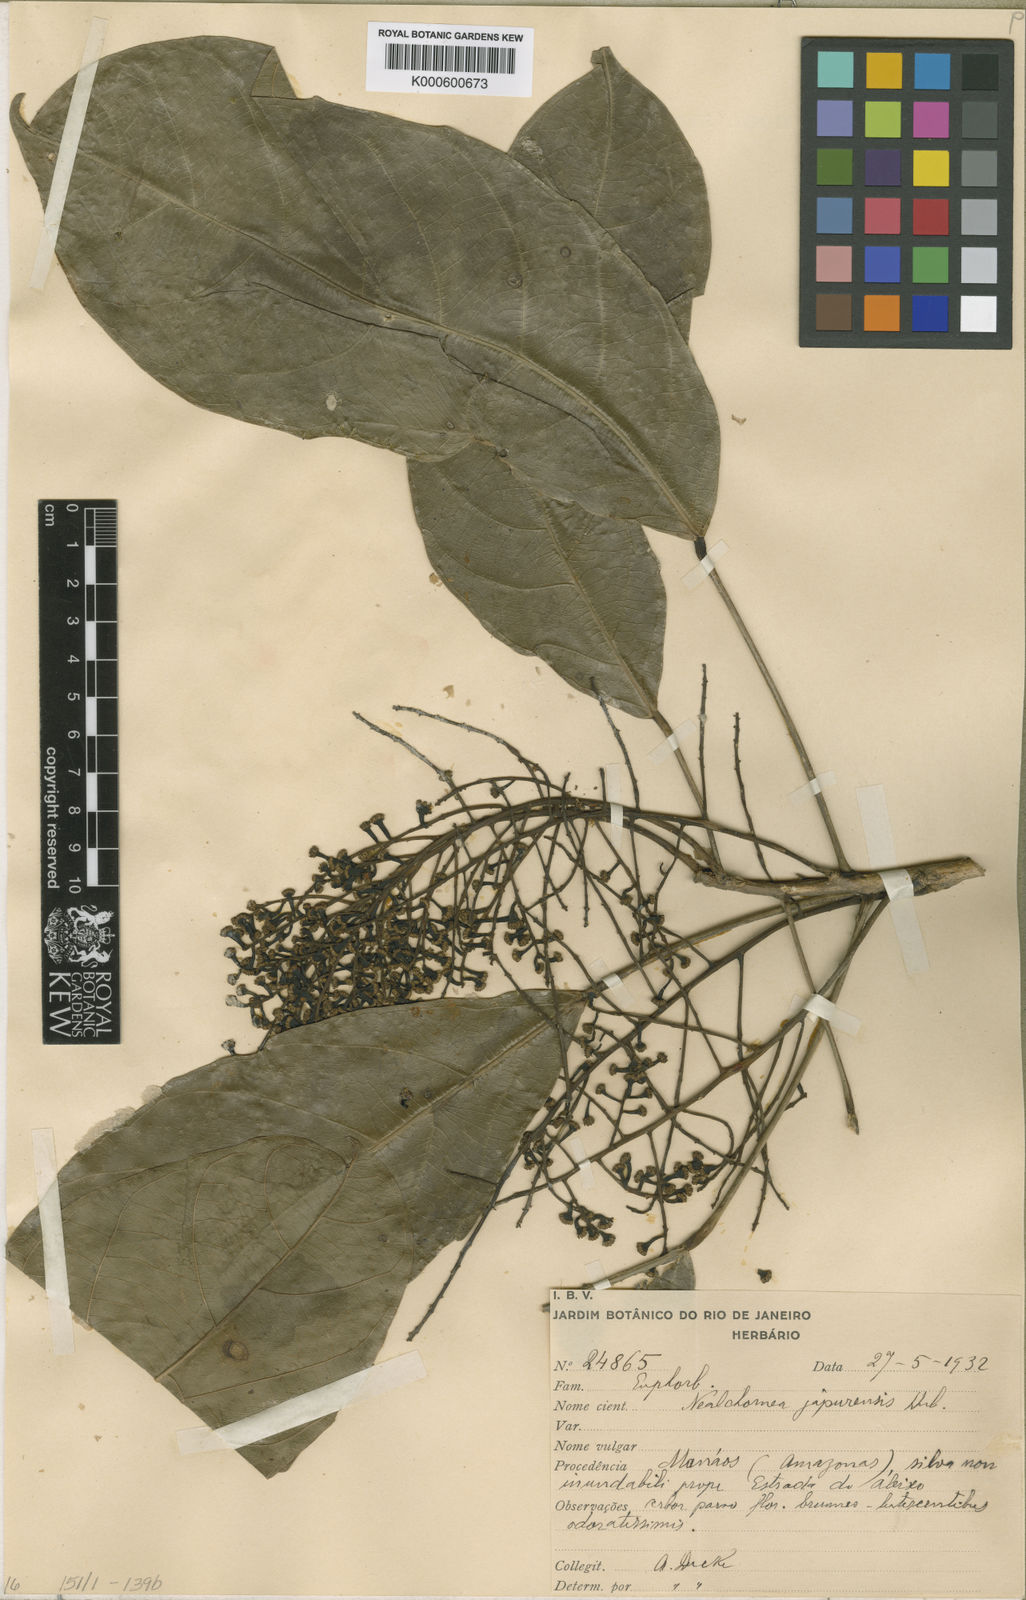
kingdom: Plantae
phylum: Tracheophyta
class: Magnoliopsida
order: Malpighiales
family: Euphorbiaceae
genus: Nealchornea
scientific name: Nealchornea yapurensis
